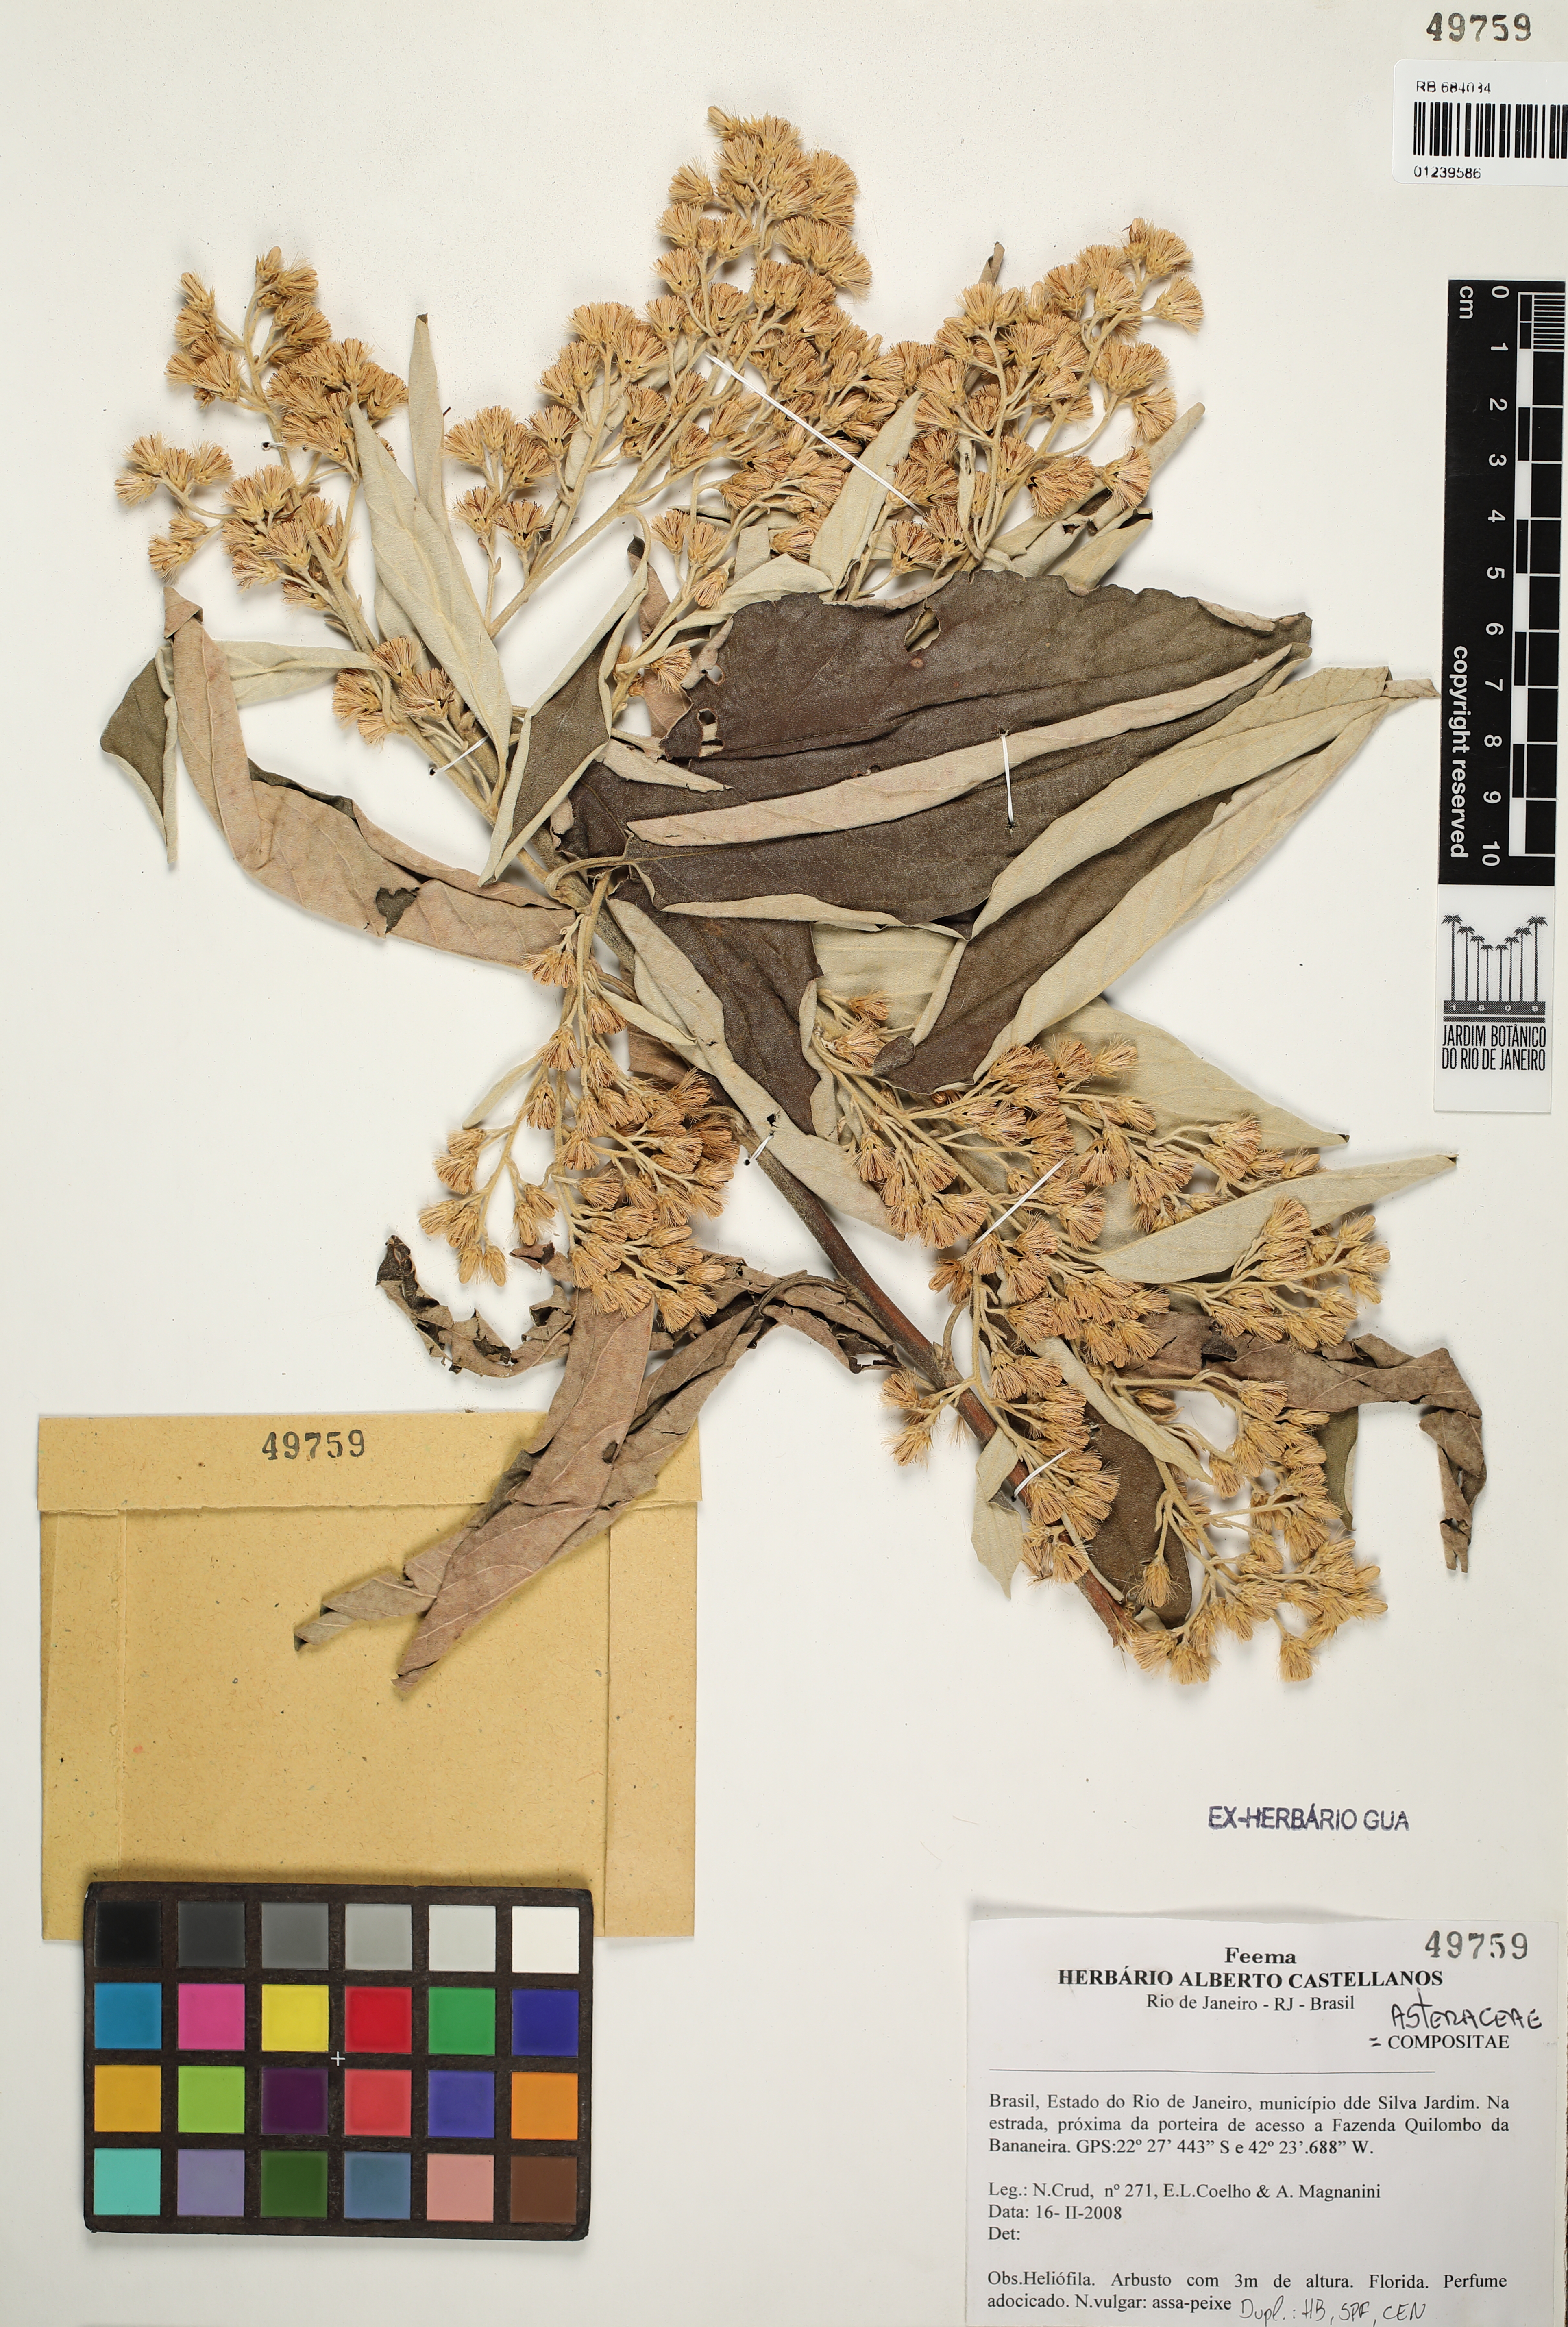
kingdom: Plantae
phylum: Tracheophyta
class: Magnoliopsida
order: Asterales
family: Asteraceae
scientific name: Asteraceae
